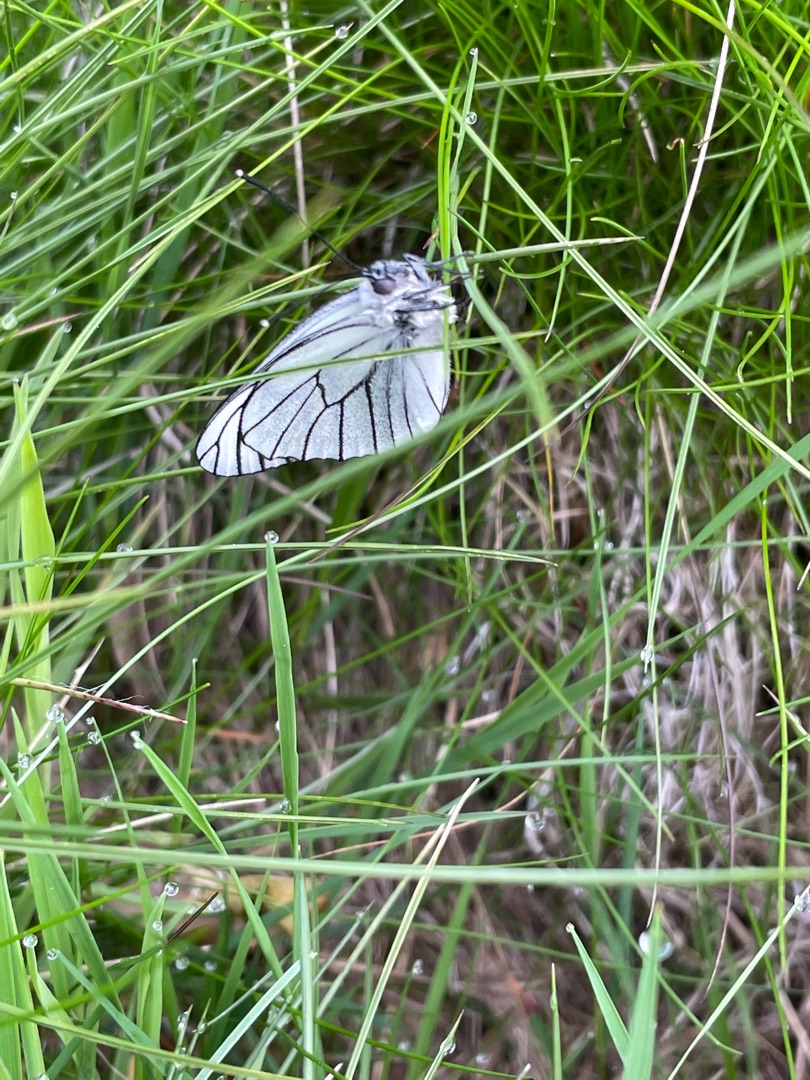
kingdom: Animalia
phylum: Arthropoda
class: Insecta
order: Lepidoptera
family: Pieridae
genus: Aporia
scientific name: Aporia crataegi
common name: Sortåret hvidvinge
